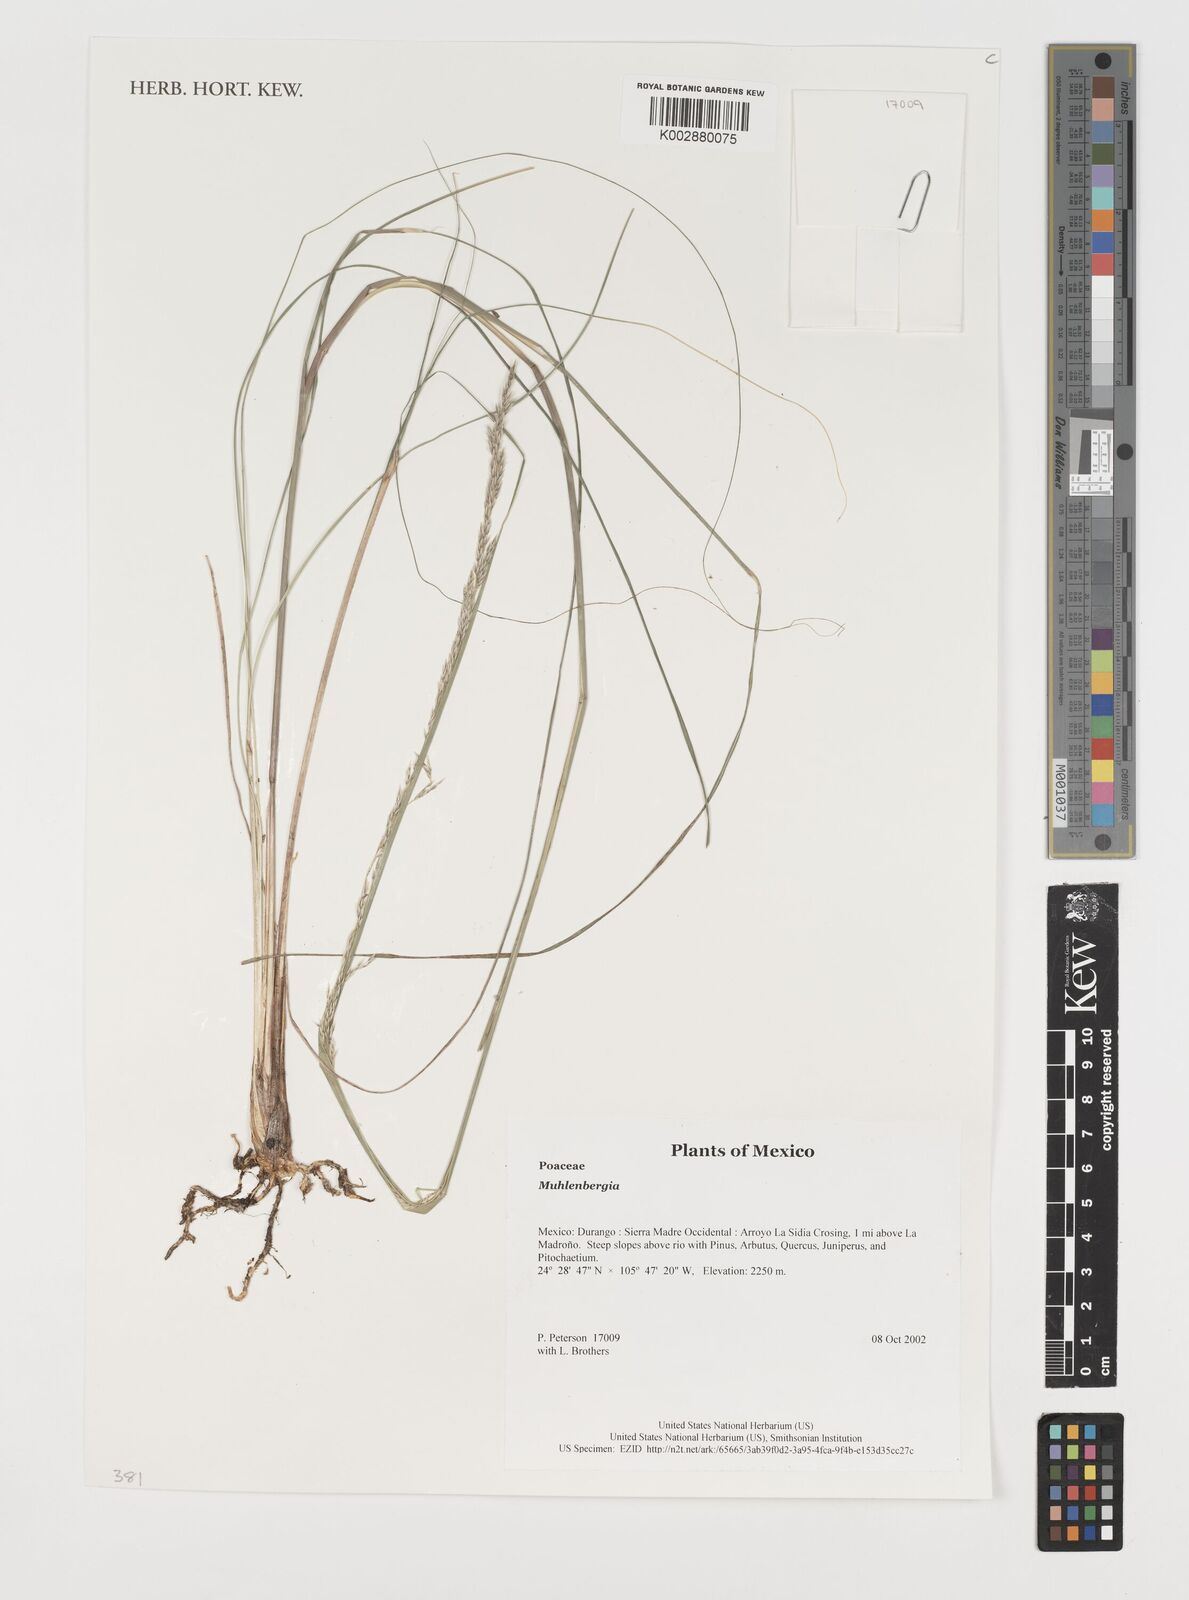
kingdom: Plantae
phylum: Tracheophyta
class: Liliopsida
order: Poales
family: Poaceae
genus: Muhlenbergia
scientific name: Muhlenbergia
